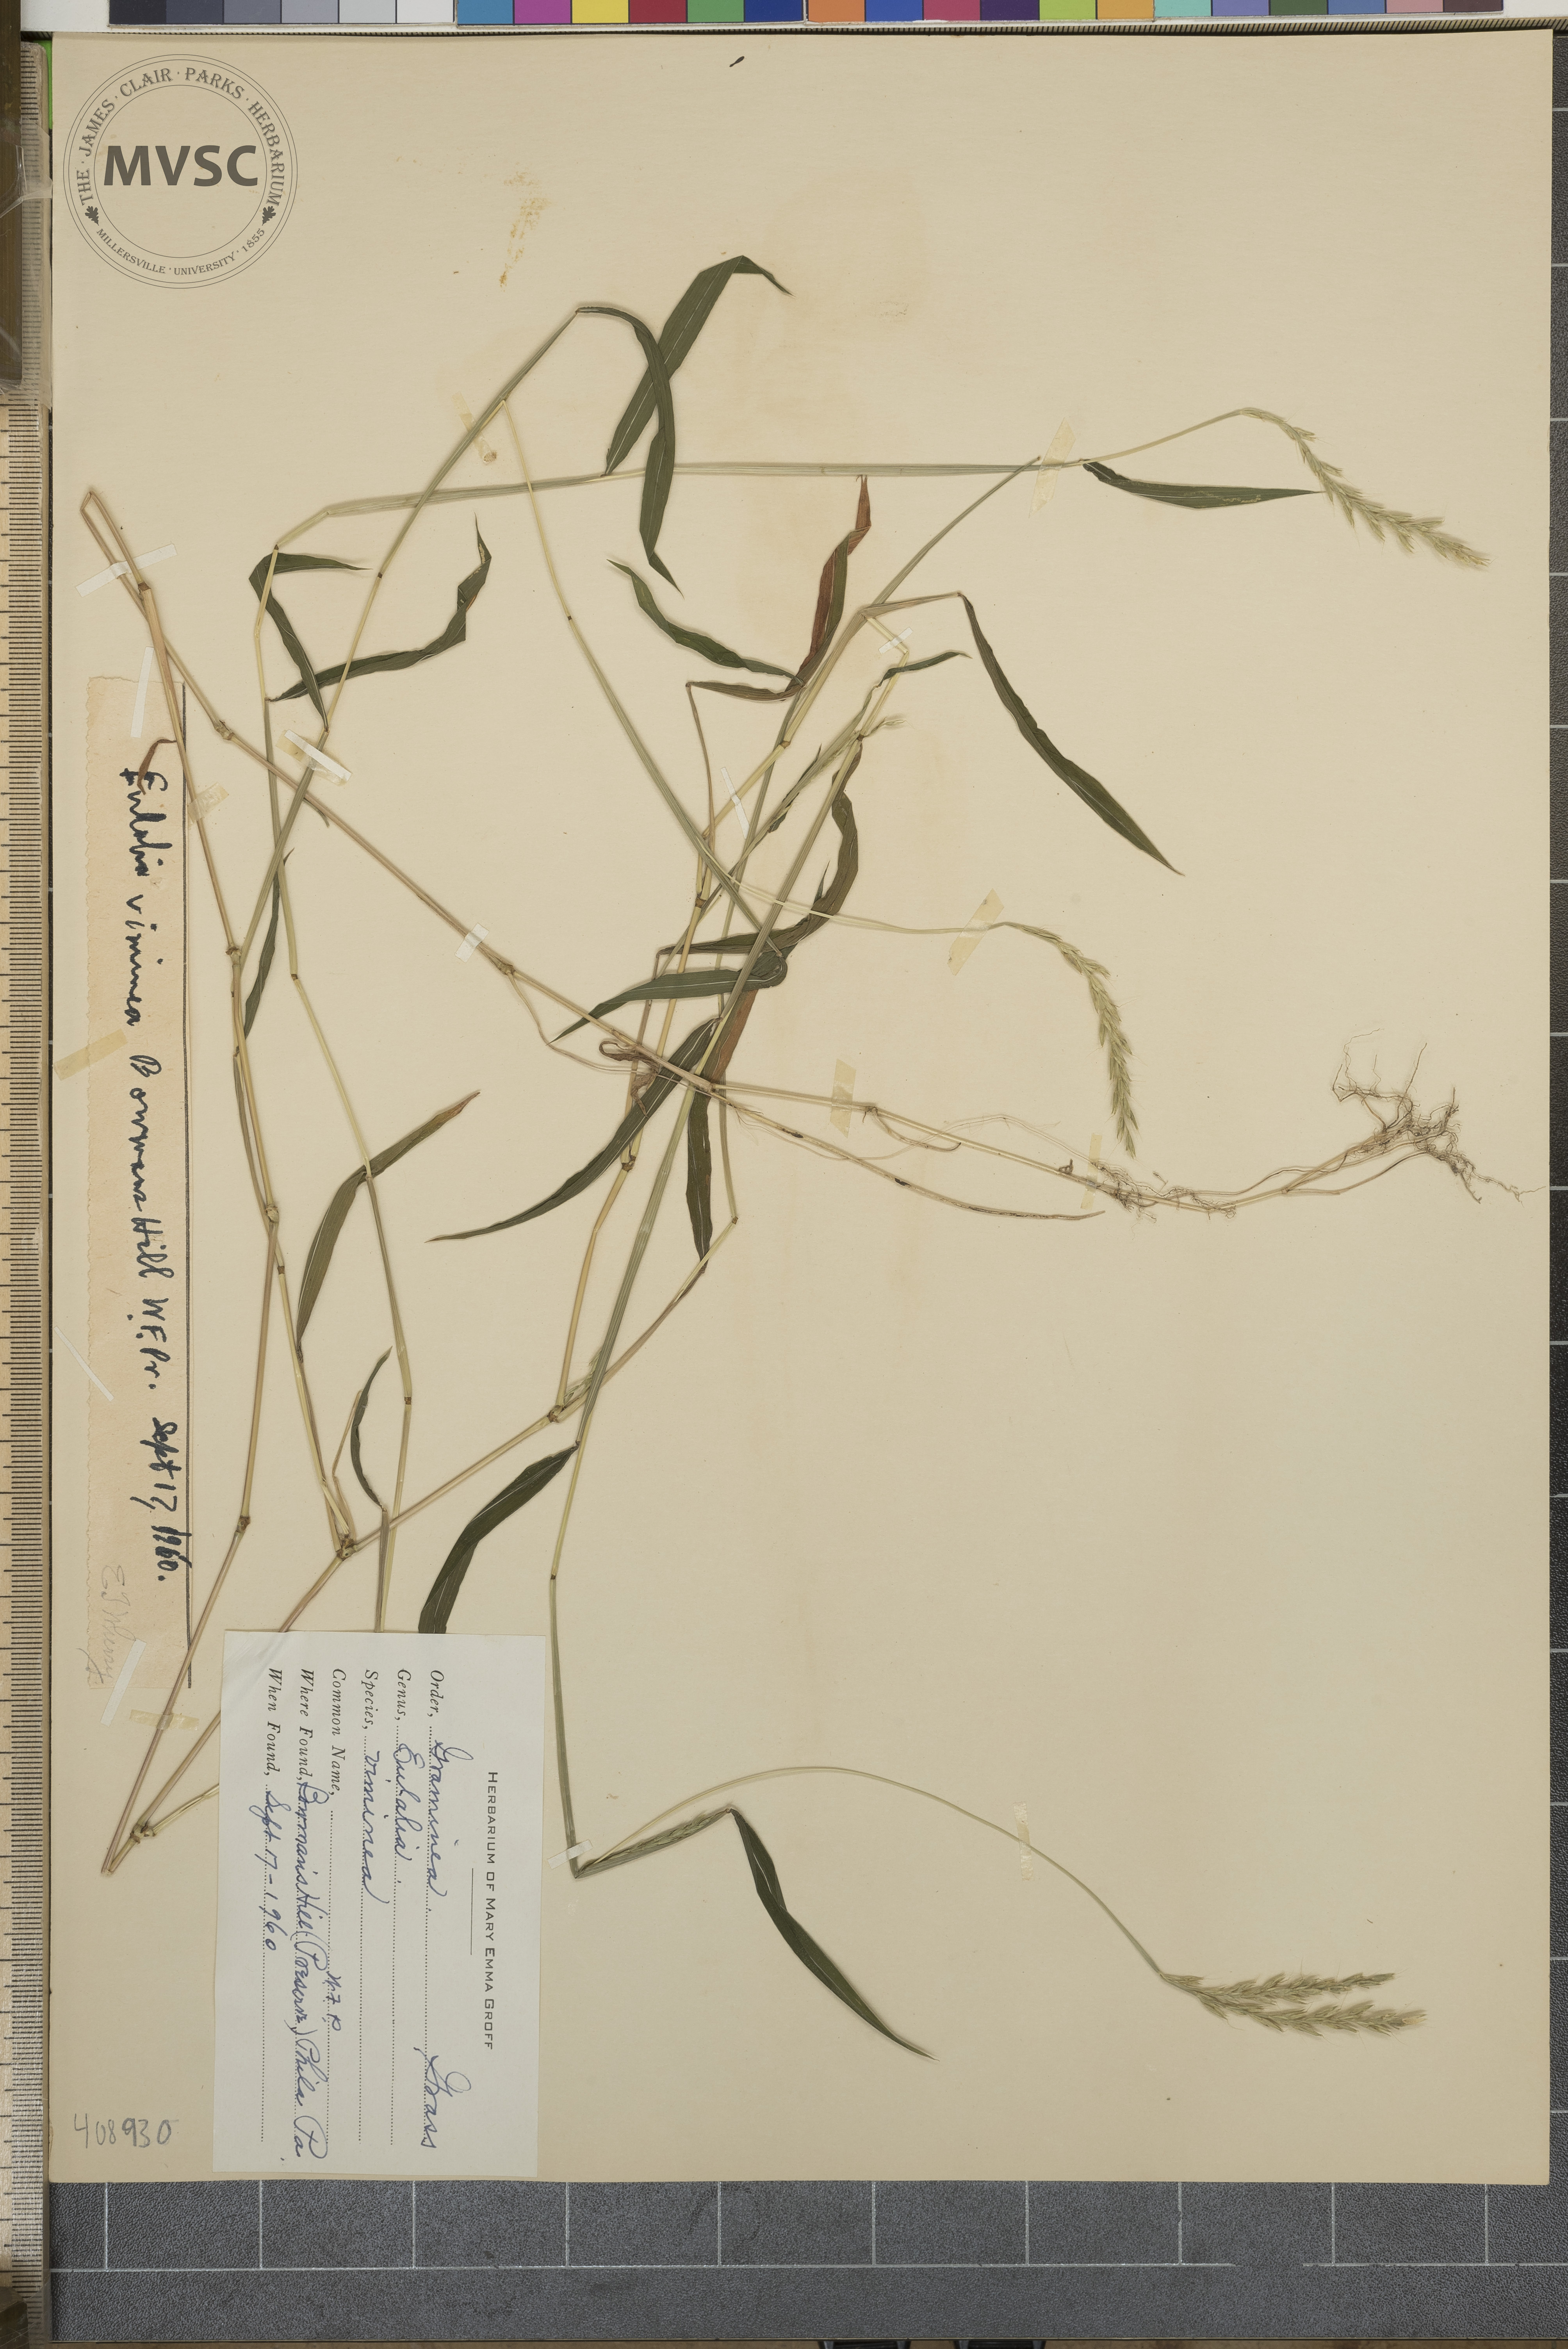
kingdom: Plantae
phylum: Tracheophyta
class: Liliopsida
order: Poales
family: Poaceae
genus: Microstegium
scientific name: Microstegium vimineum
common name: Japanese stiltgrass
